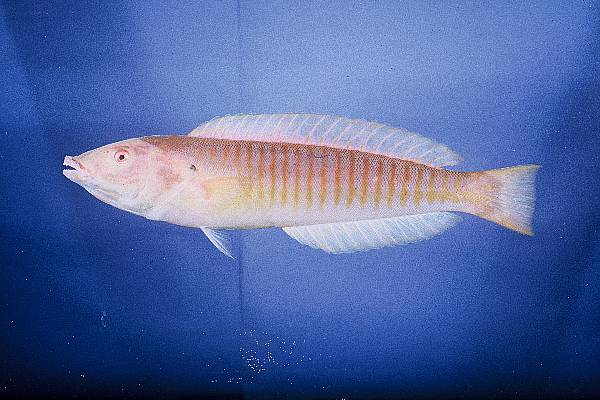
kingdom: Animalia
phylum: Chordata
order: Perciformes
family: Labridae
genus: Hologymnosus
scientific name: Hologymnosus doliatus
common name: Pastel ringwrasse
